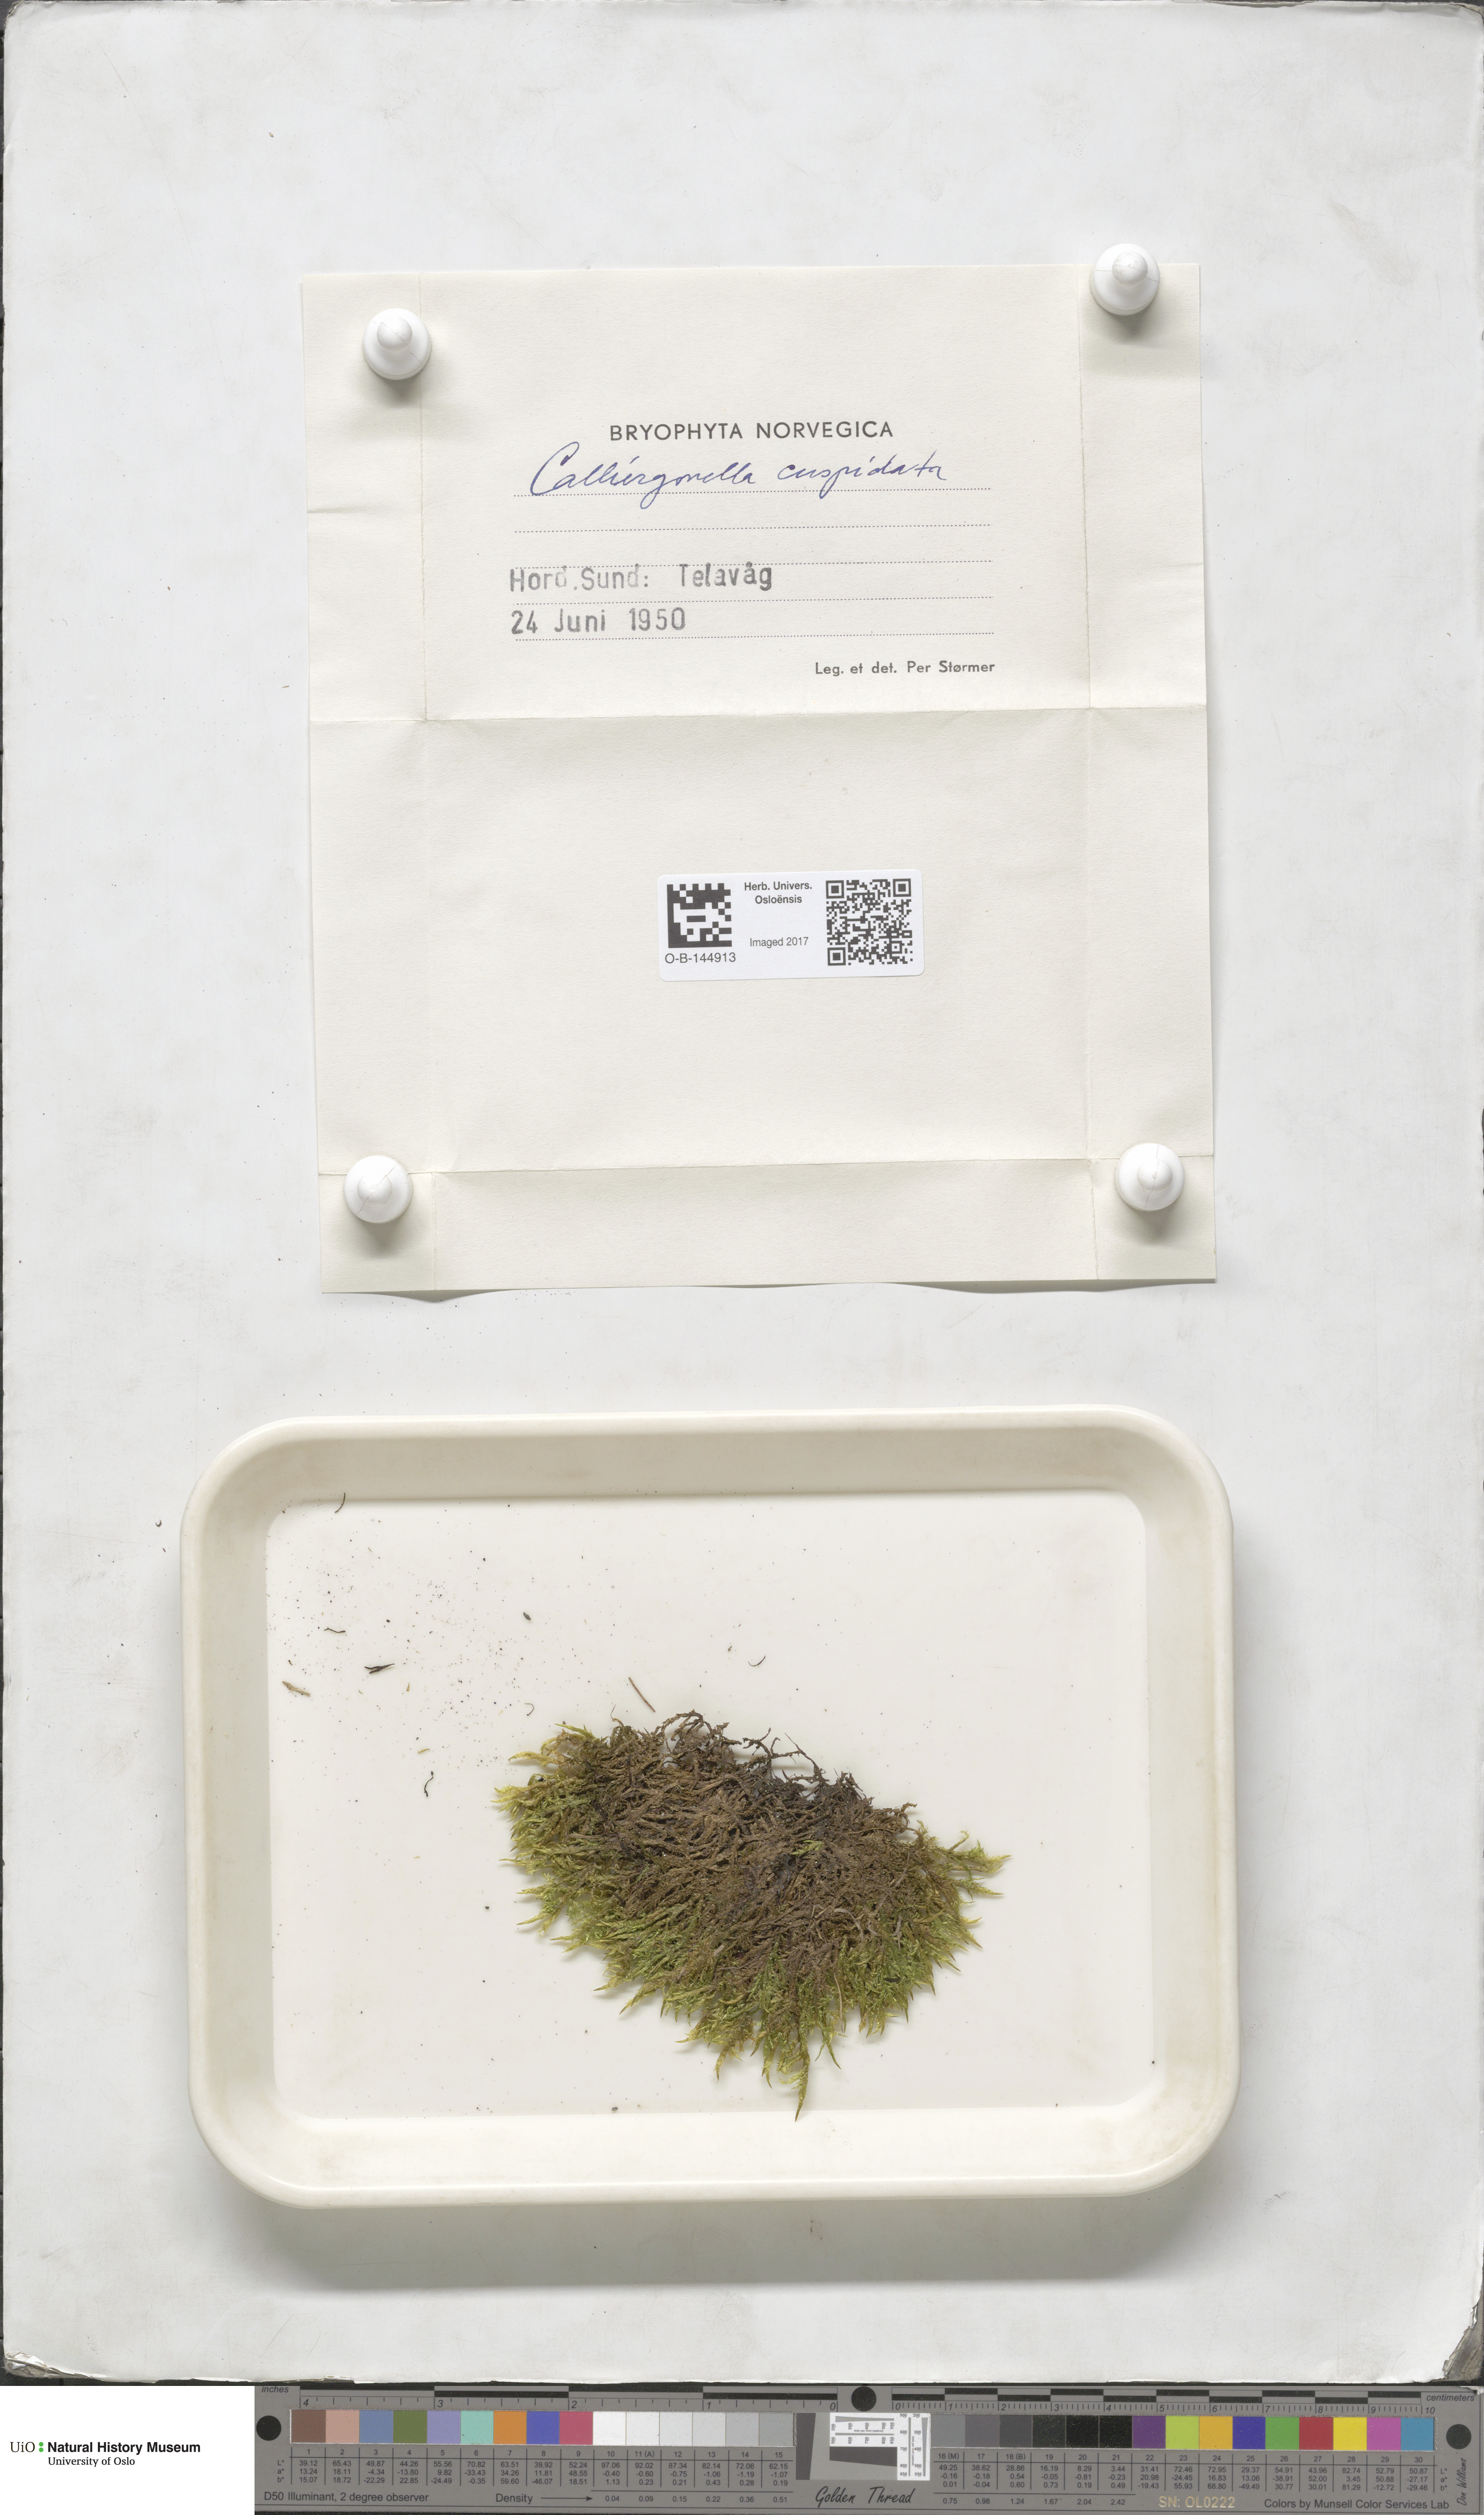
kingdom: Plantae
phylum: Bryophyta
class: Bryopsida
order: Hypnales
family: Pylaisiaceae
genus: Calliergonella
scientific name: Calliergonella cuspidata
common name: Common large wetland moss
